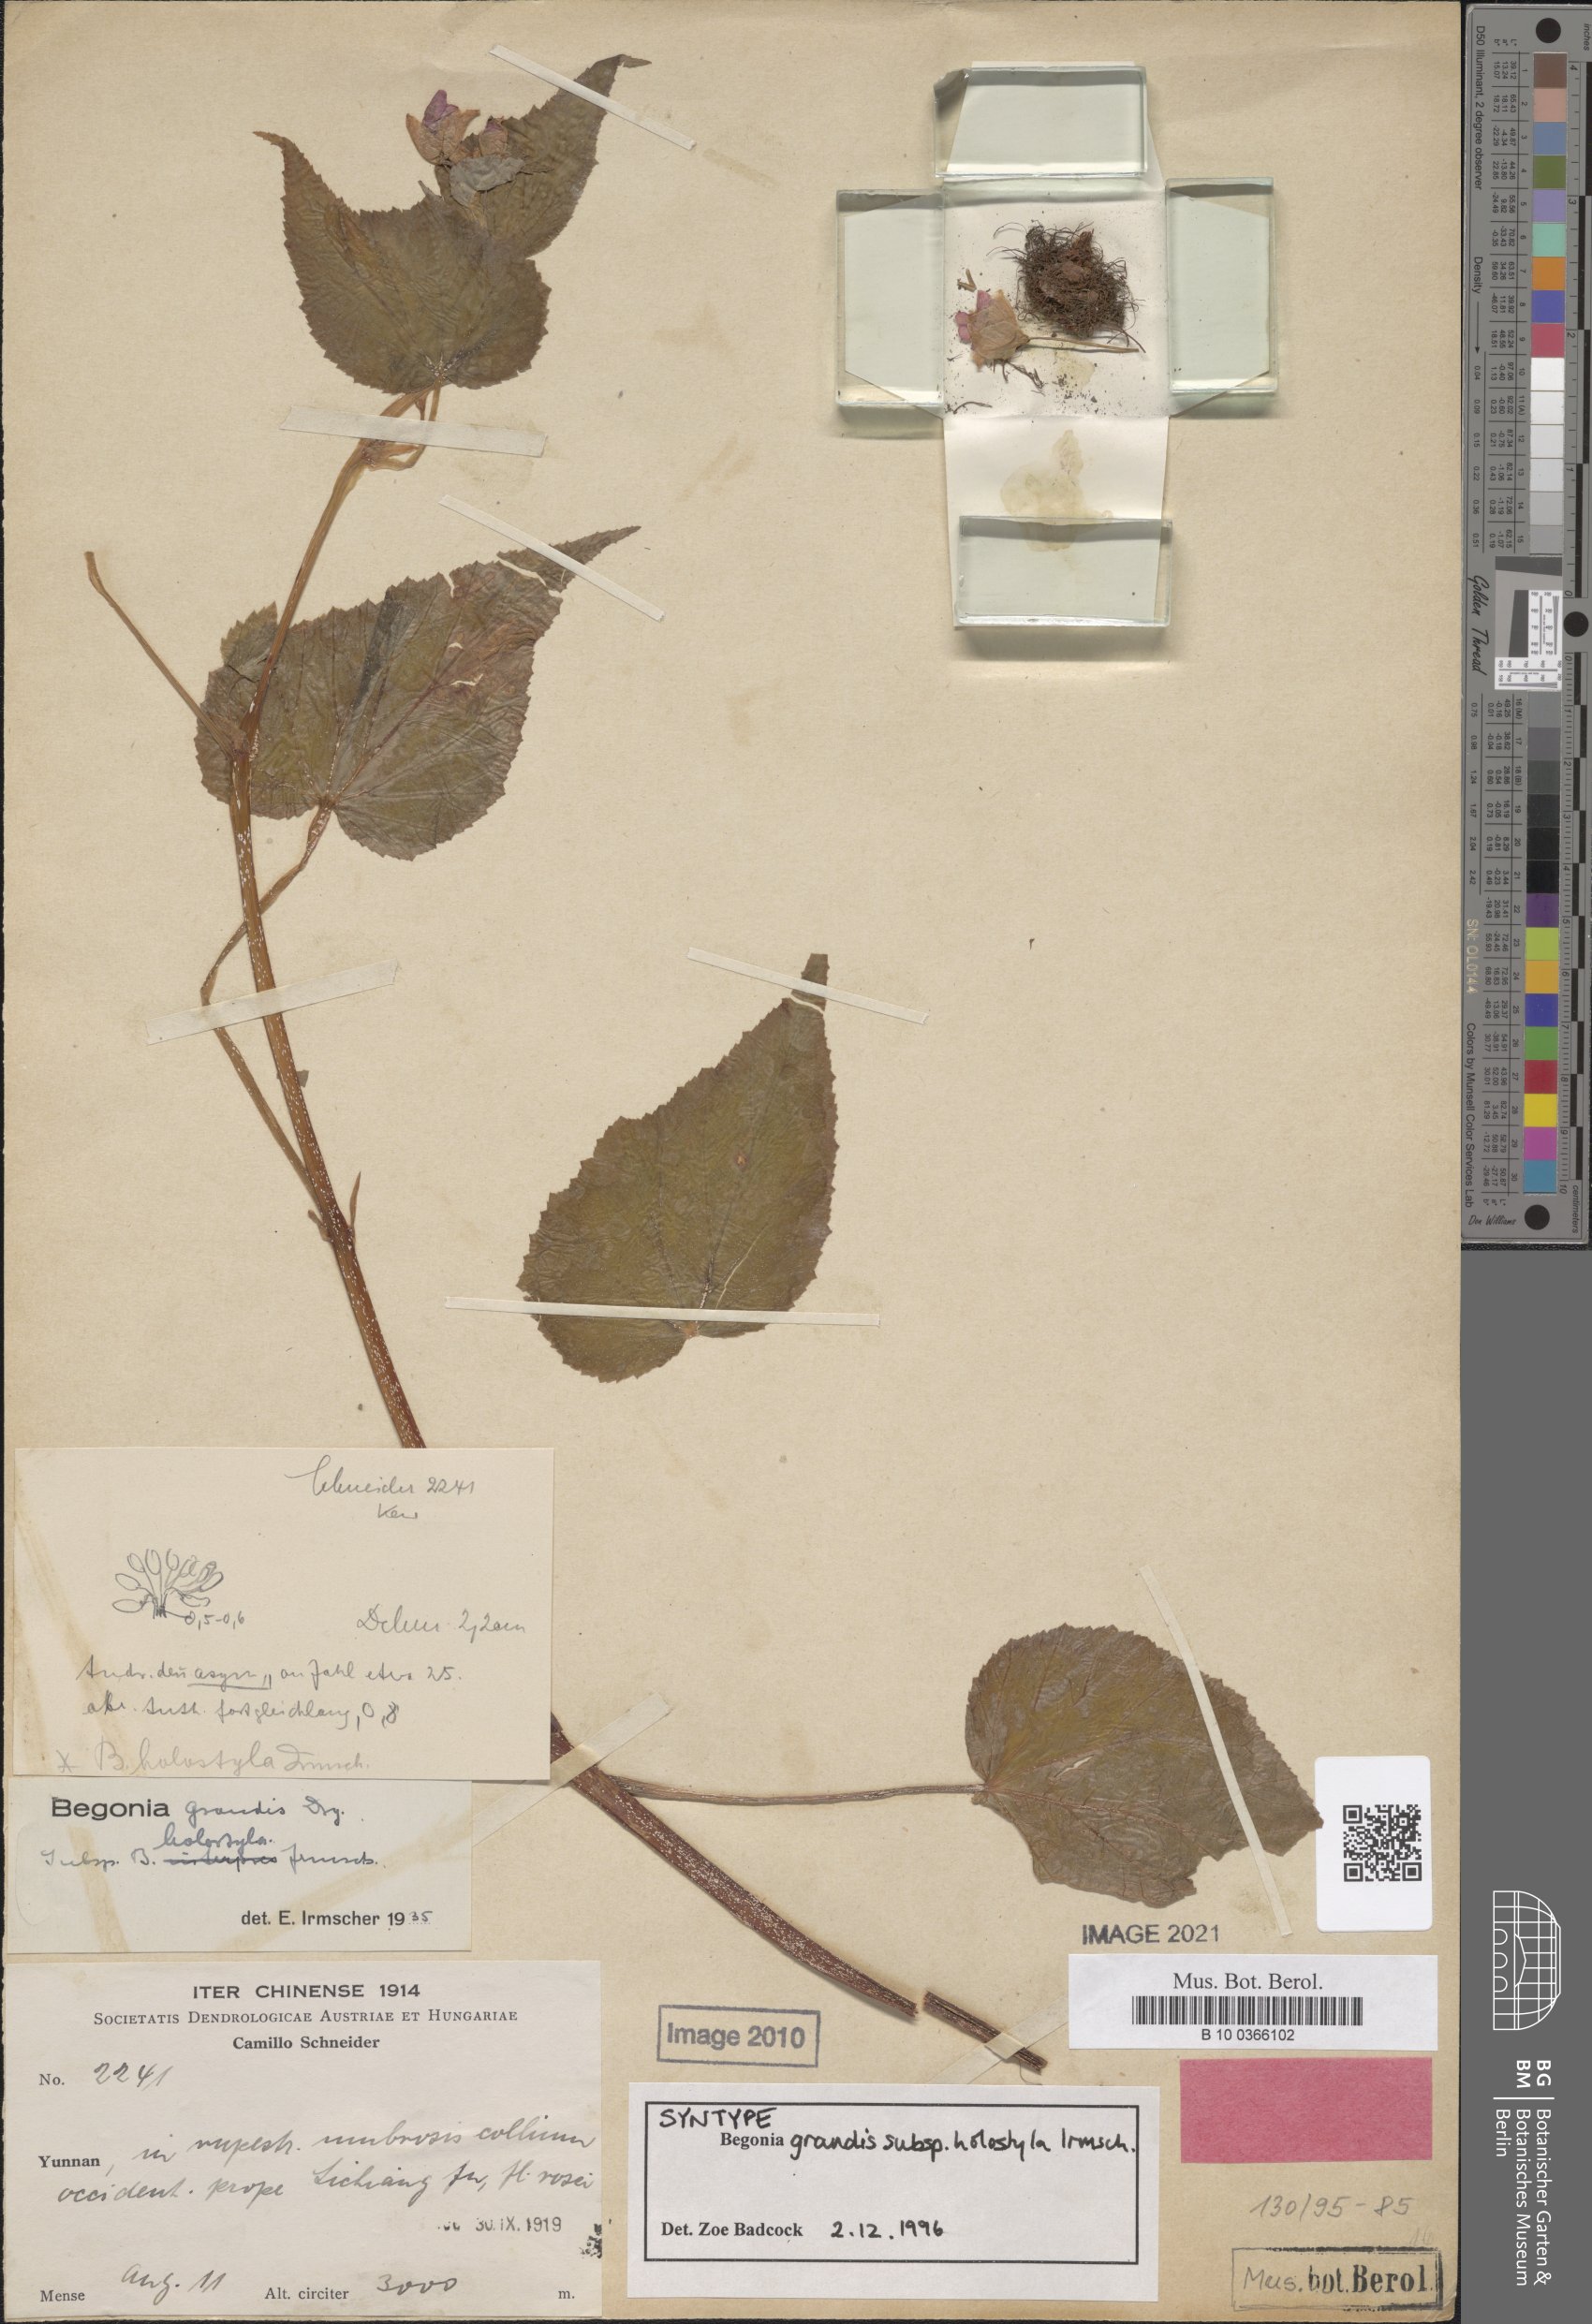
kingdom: Plantae
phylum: Tracheophyta
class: Magnoliopsida
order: Cucurbitales
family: Begoniaceae
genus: Begonia
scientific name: Begonia grandis
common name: Hardy begonia
